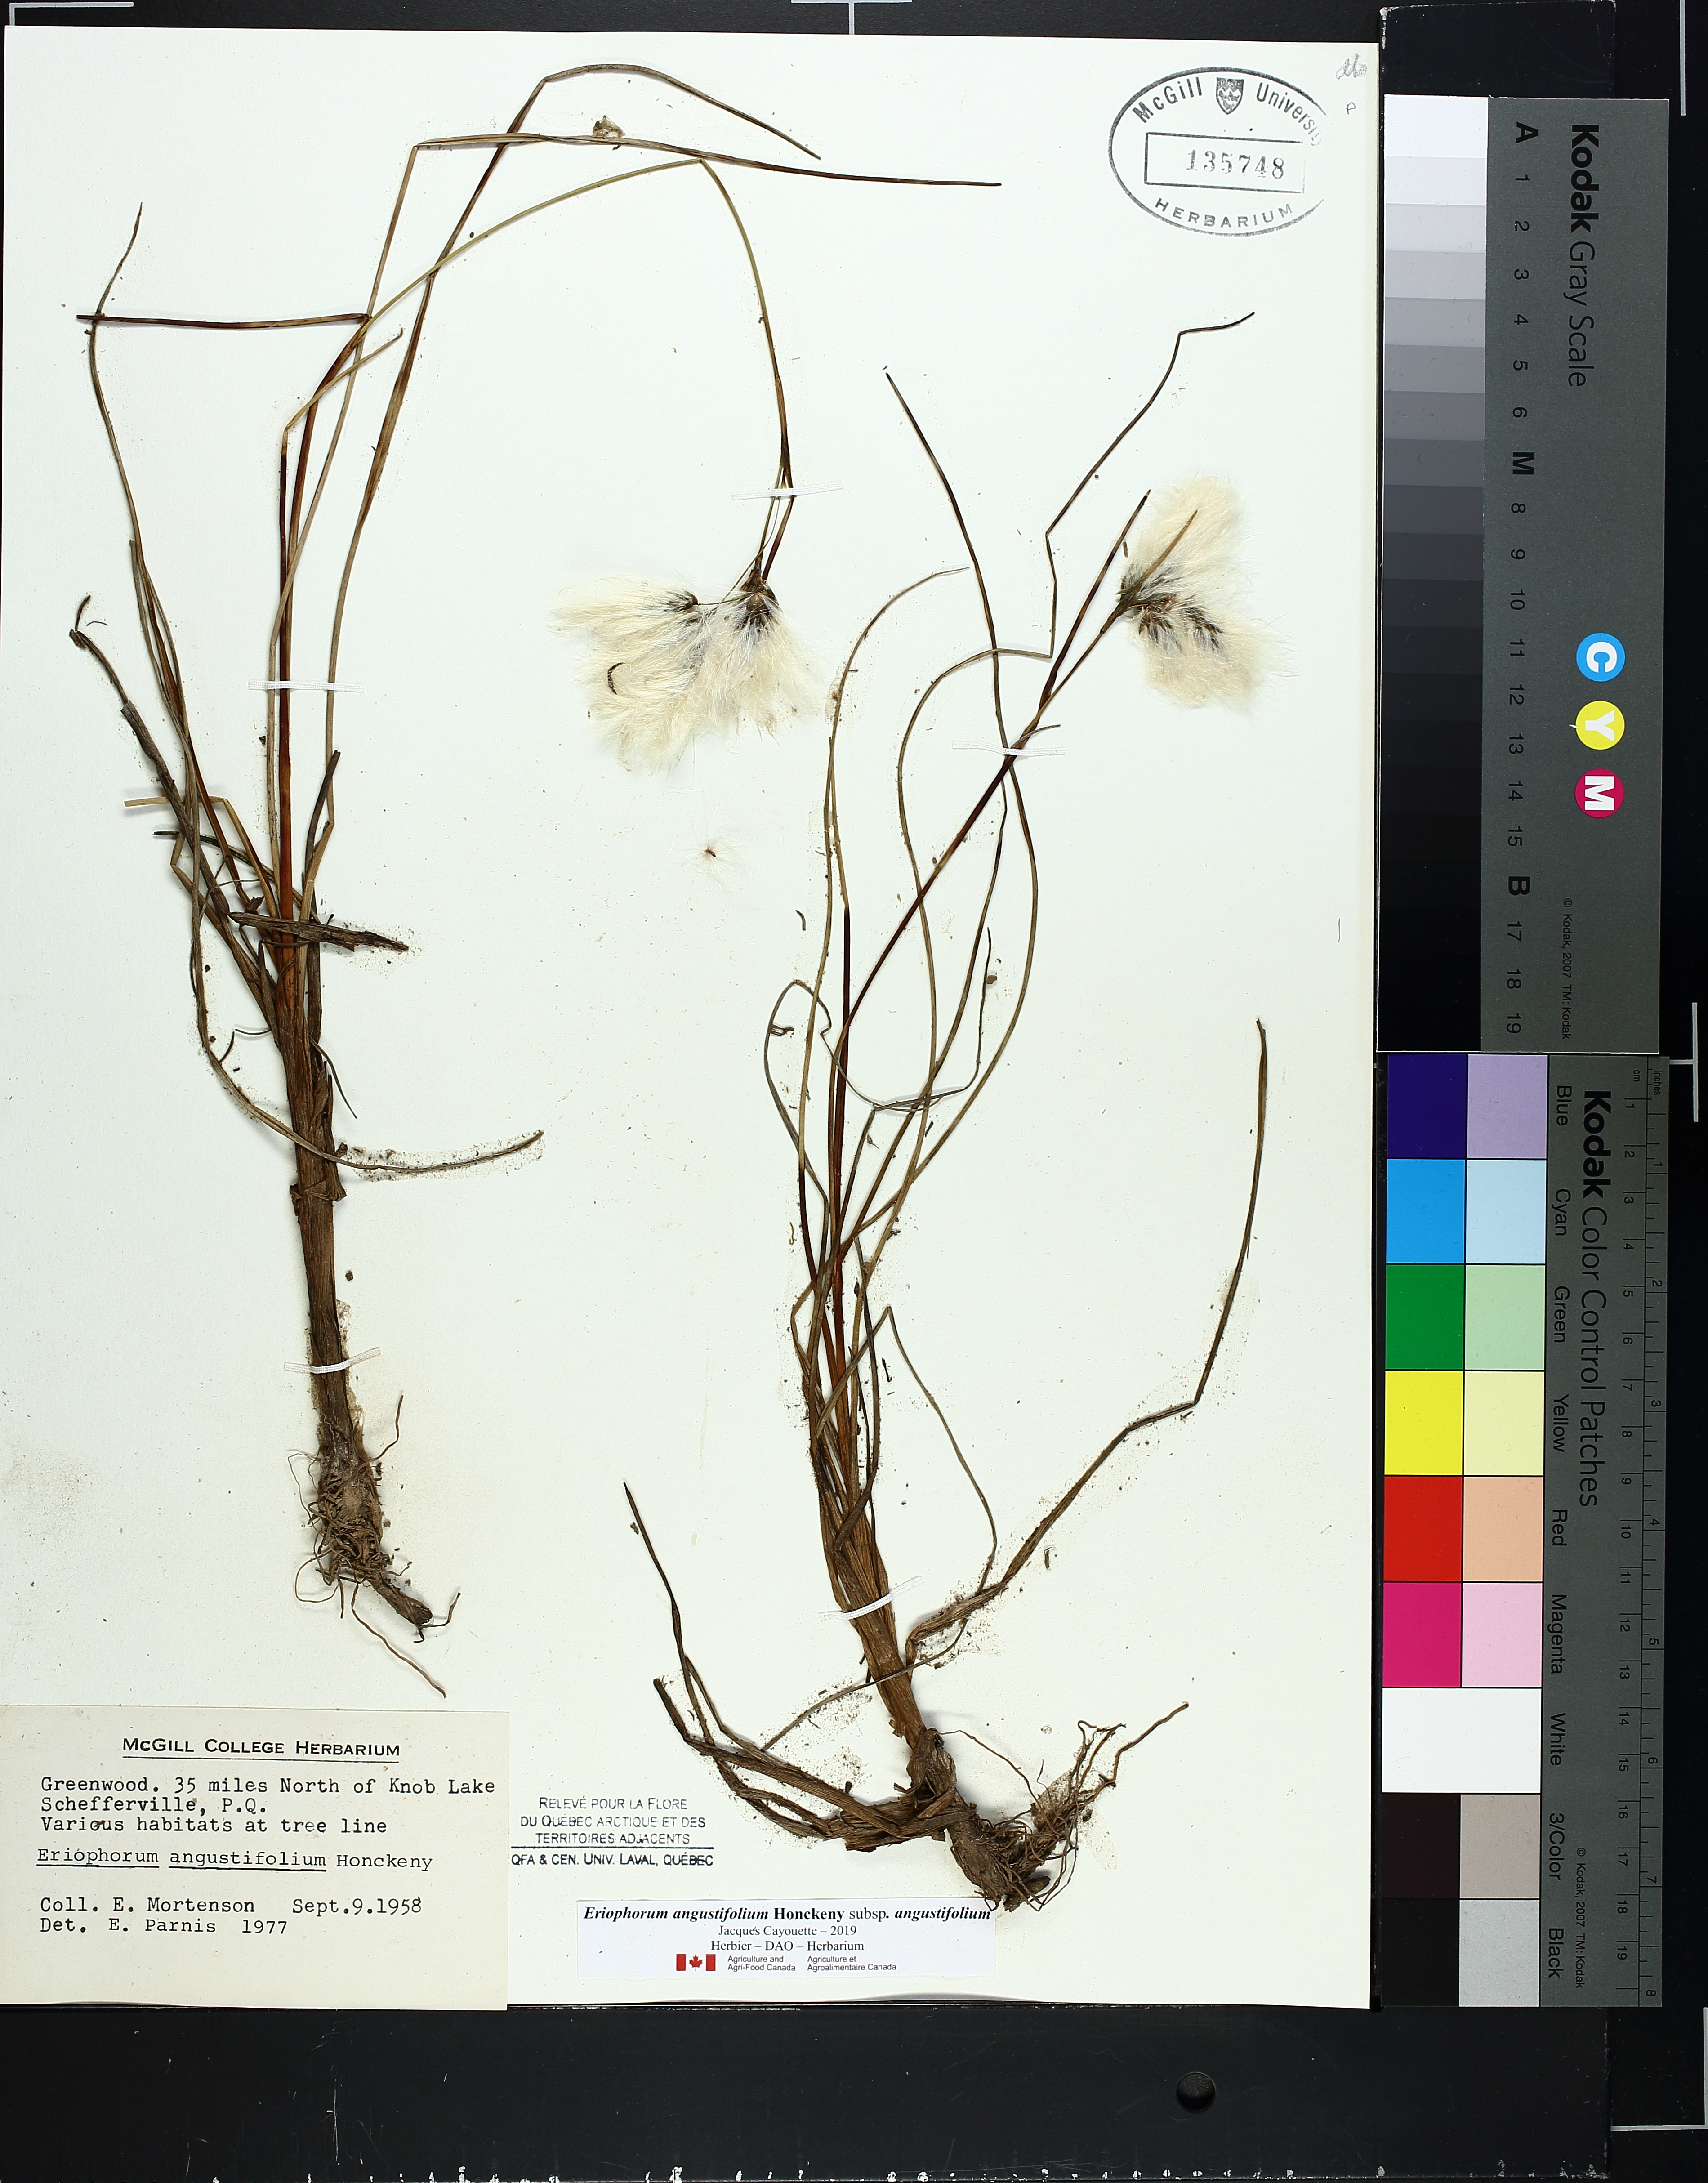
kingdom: Plantae
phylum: Tracheophyta
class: Liliopsida
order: Poales
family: Cyperaceae
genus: Eriophorum
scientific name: Eriophorum triste
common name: Tall cottongrass
